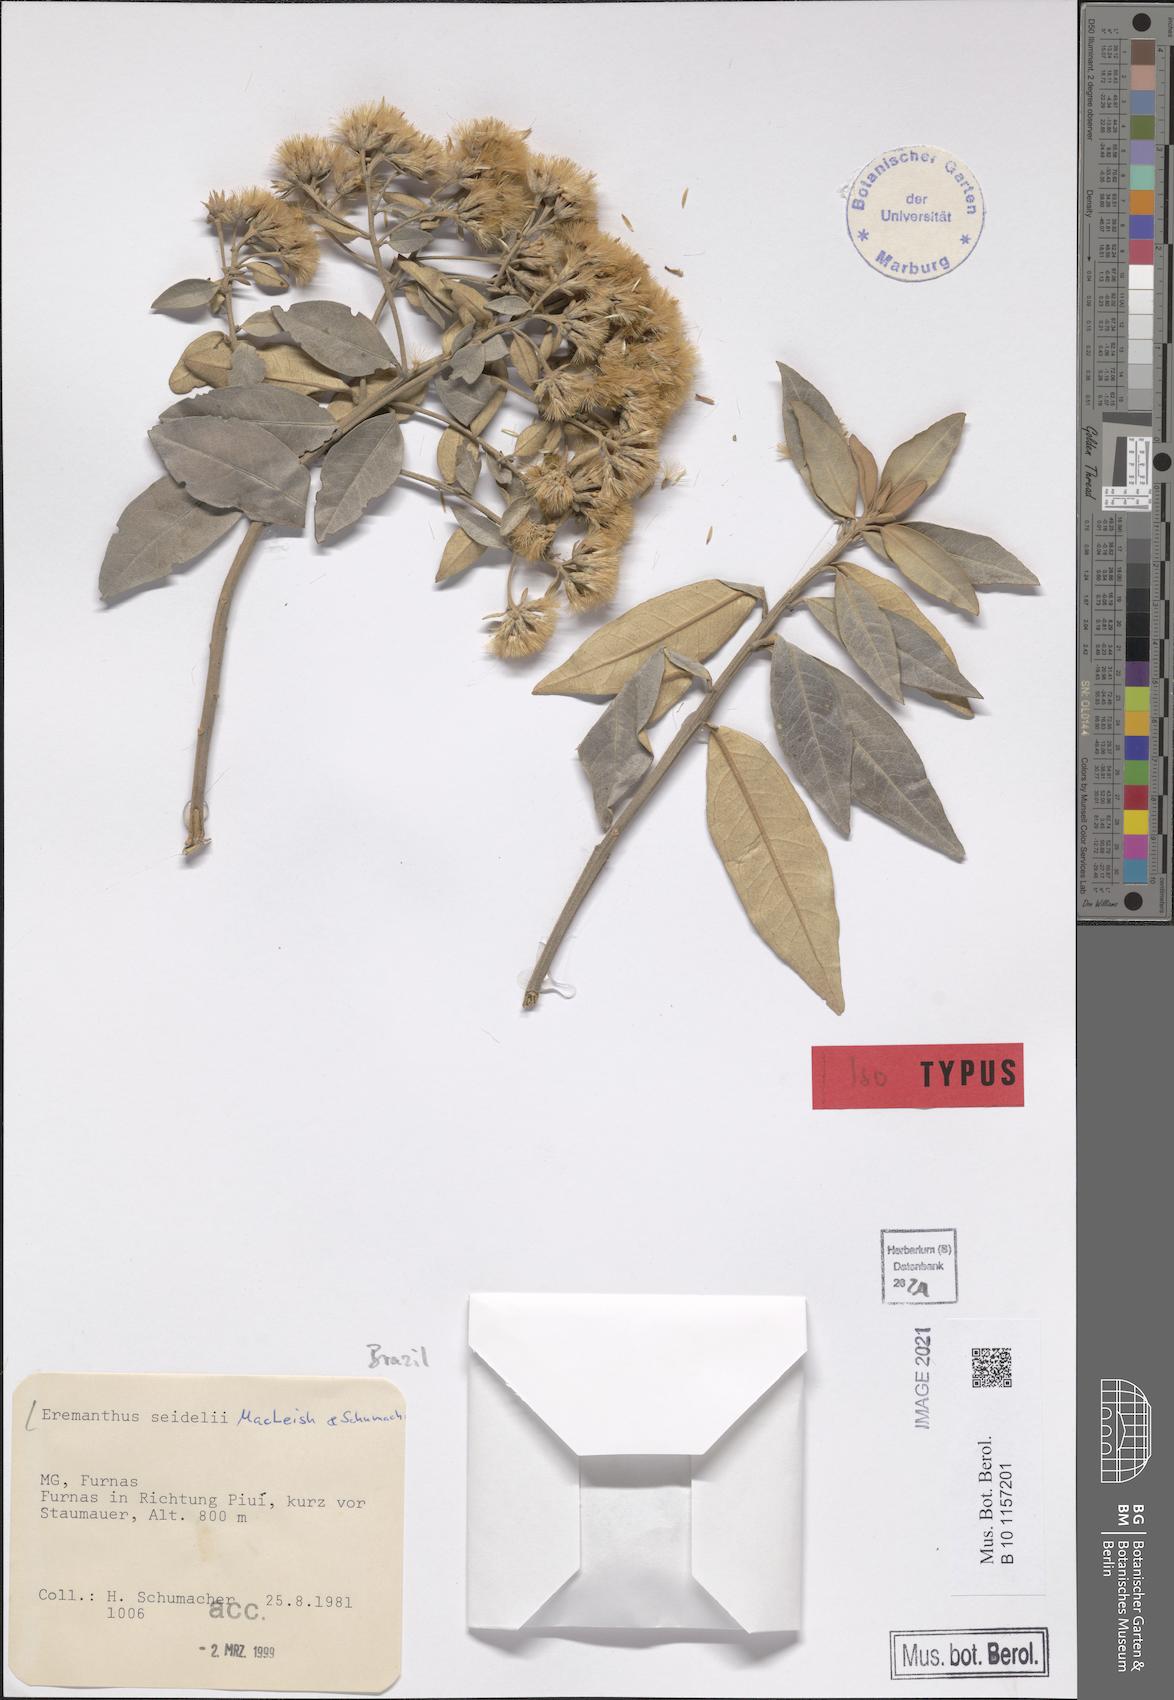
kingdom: Plantae
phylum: Tracheophyta
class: Magnoliopsida
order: Asterales
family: Asteraceae
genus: Eremanthus
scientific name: Eremanthus elaeagnus
